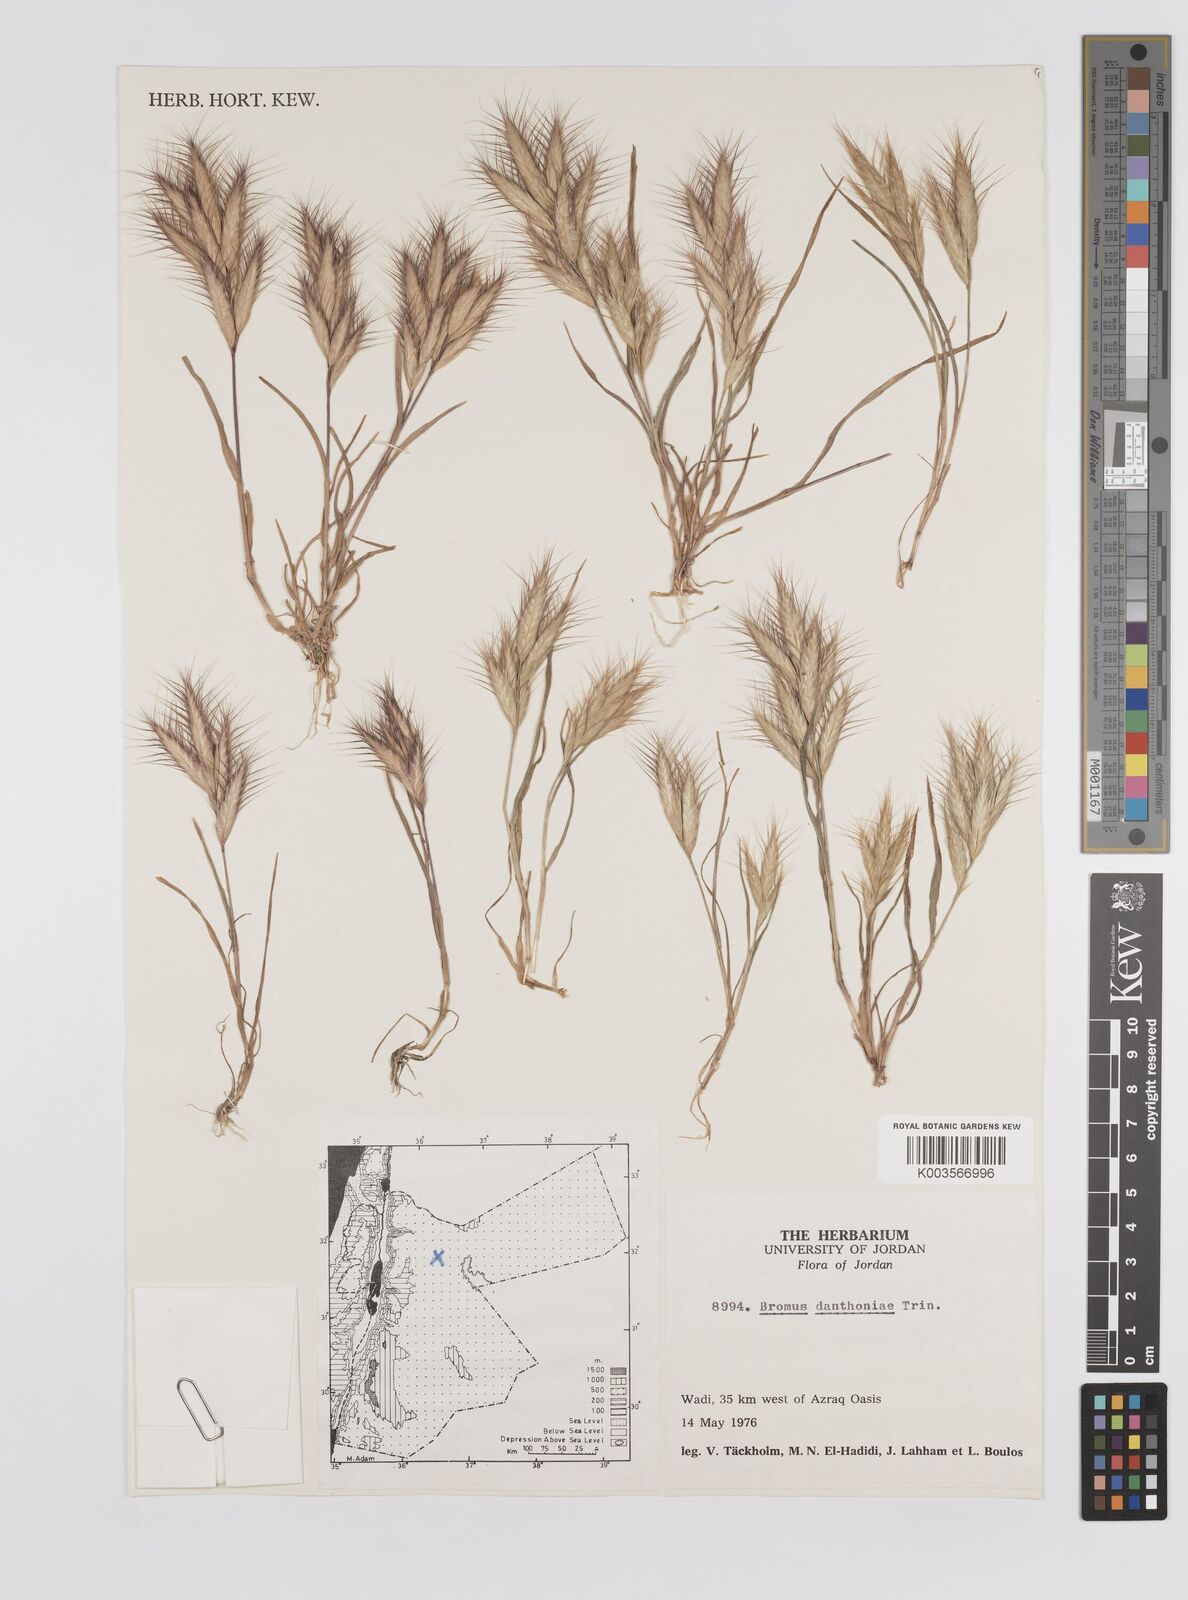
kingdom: Plantae
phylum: Tracheophyta
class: Liliopsida
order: Poales
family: Poaceae
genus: Bromus
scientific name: Bromus danthoniae
